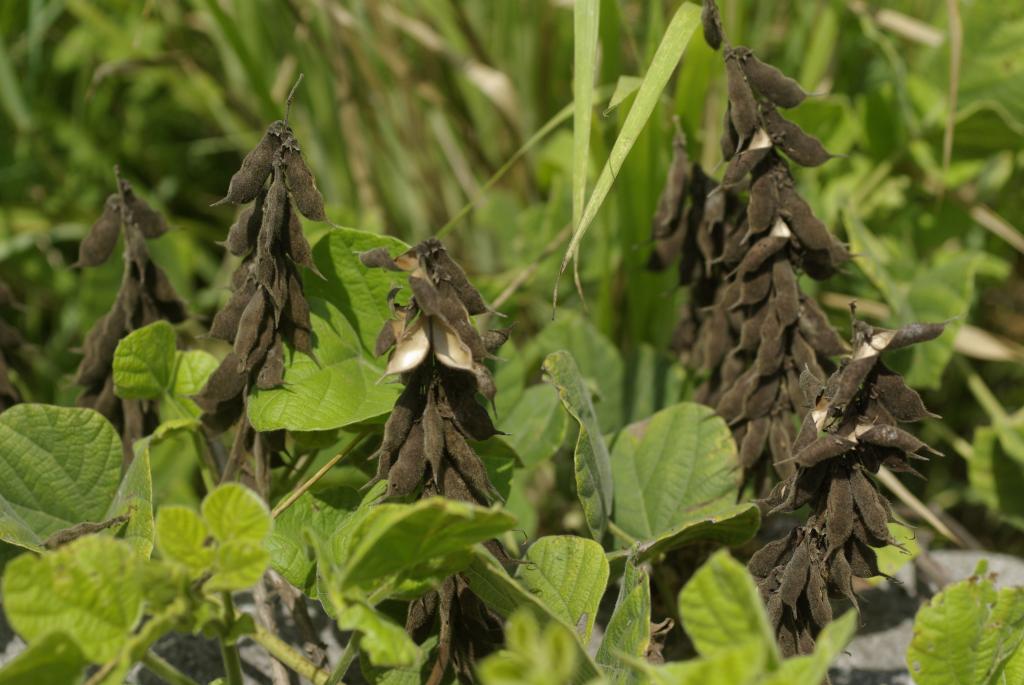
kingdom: Plantae
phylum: Tracheophyta
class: Magnoliopsida
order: Fabales
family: Fabaceae
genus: Rhynchosia
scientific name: Rhynchosia rothii
